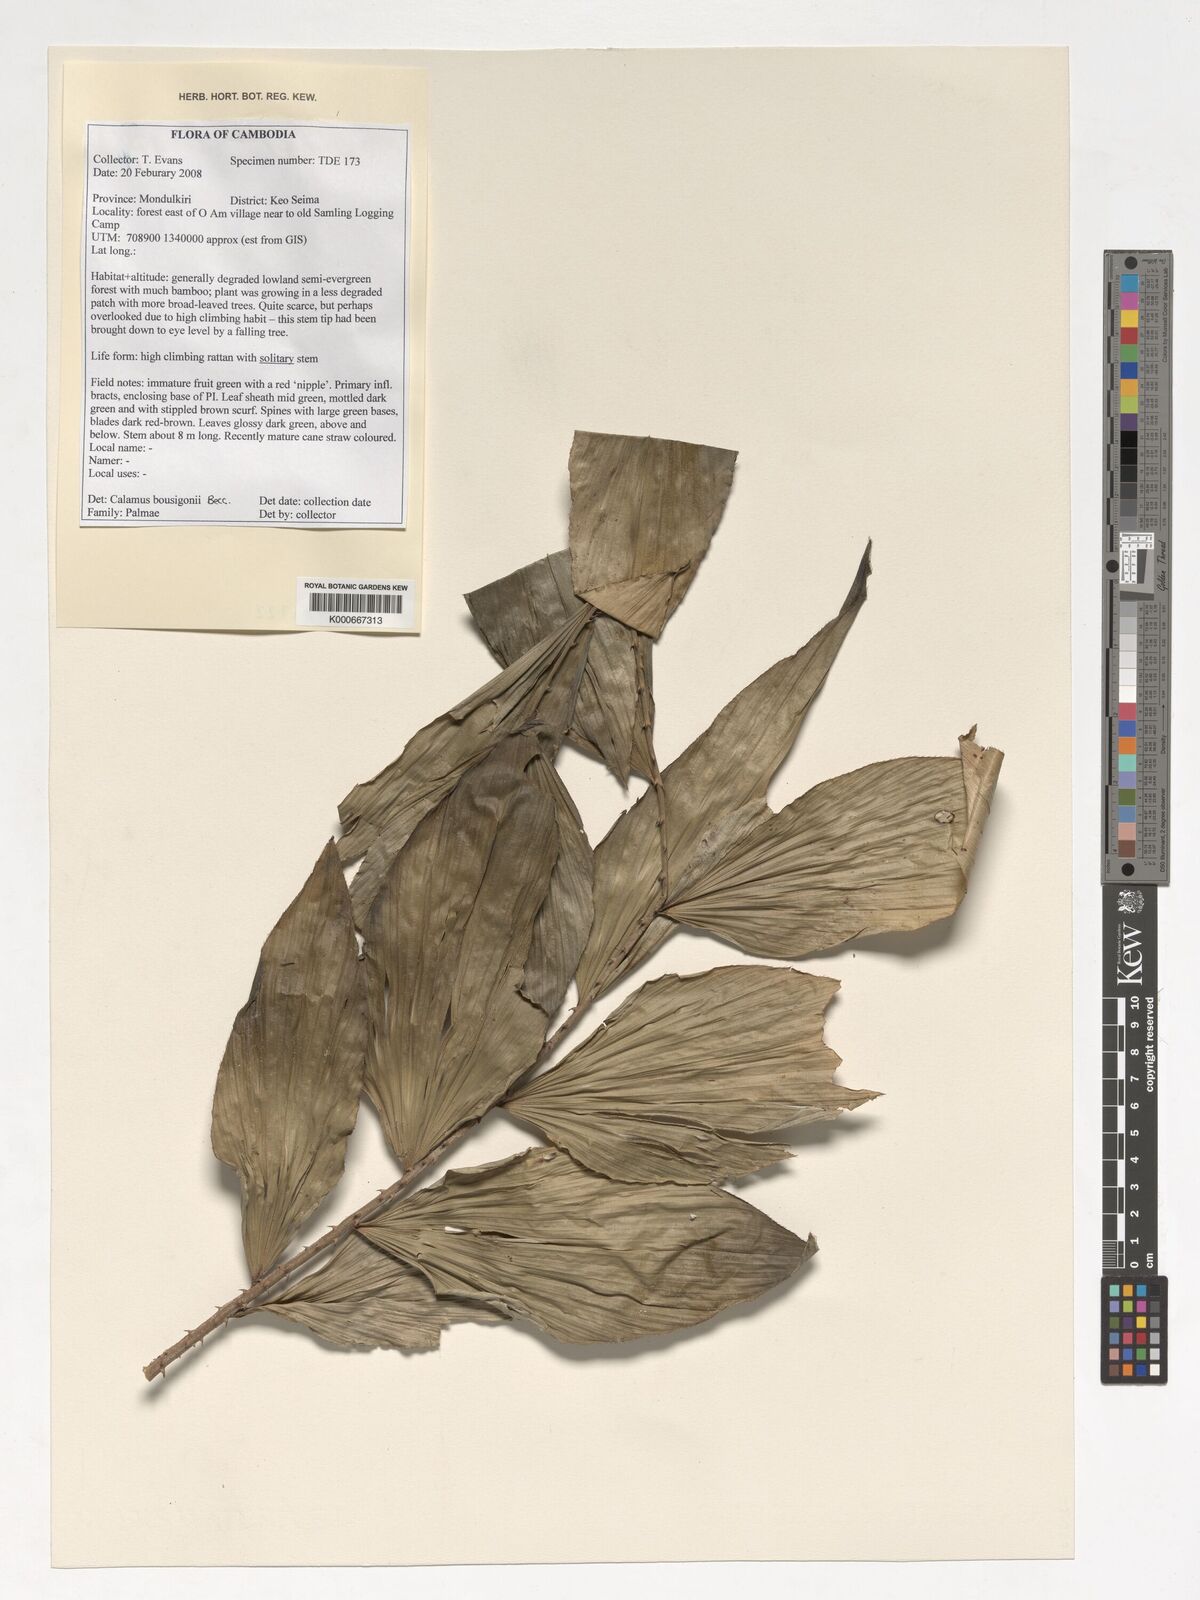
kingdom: Plantae
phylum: Tracheophyta
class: Liliopsida
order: Arecales
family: Arecaceae
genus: Calamus
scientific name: Calamus bousigonii
